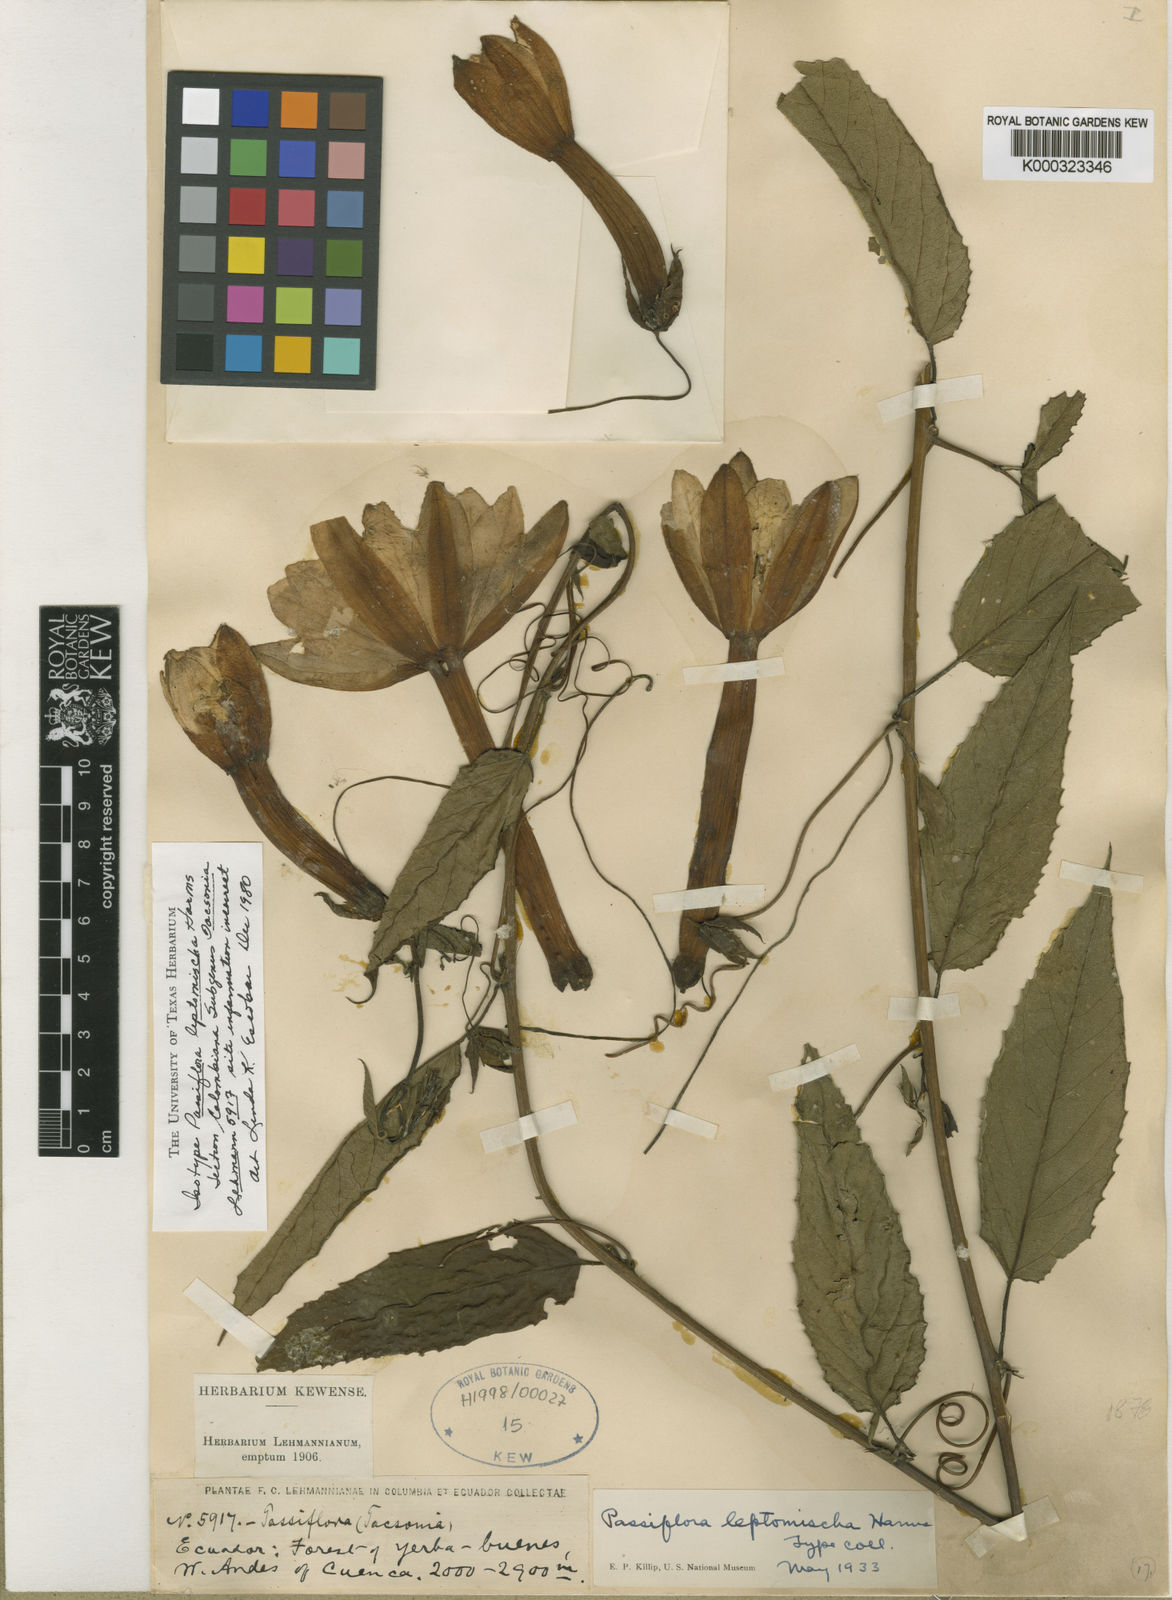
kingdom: Plantae
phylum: Tracheophyta
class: Magnoliopsida
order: Malpighiales
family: Passifloraceae
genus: Passiflora
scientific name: Passiflora leptomischa
